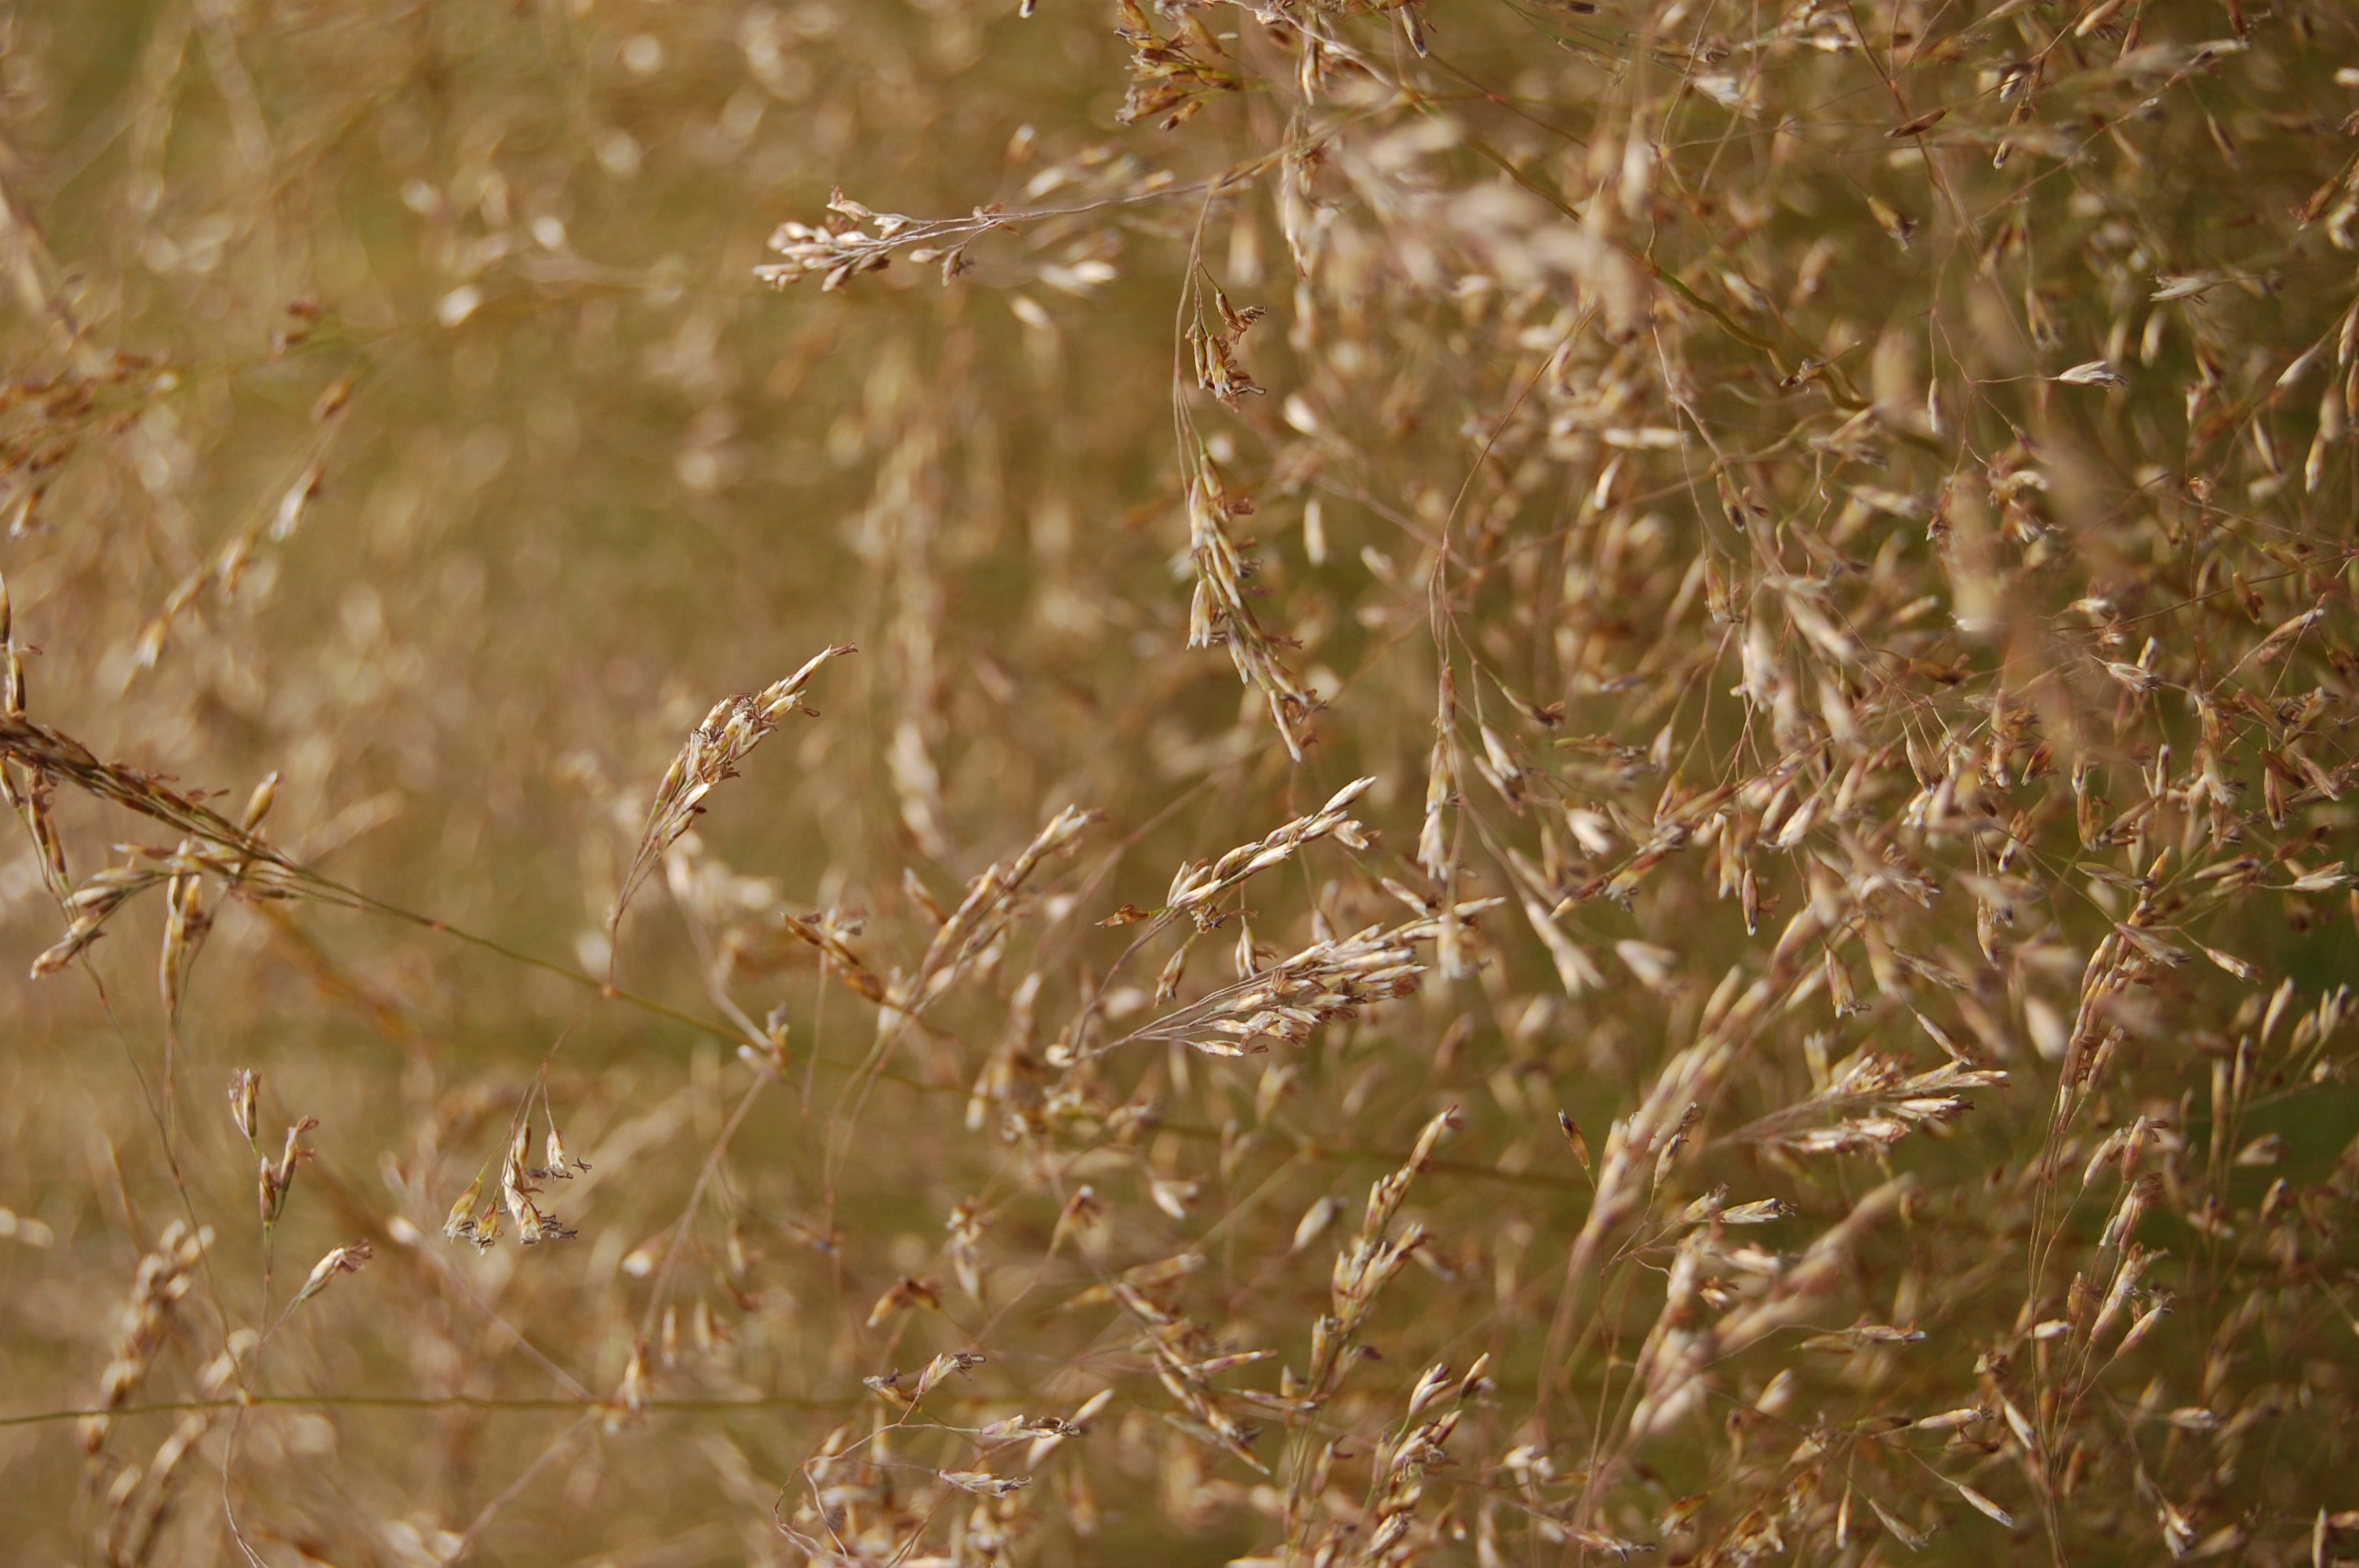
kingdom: Plantae
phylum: Tracheophyta
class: Liliopsida
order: Poales
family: Poaceae
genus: Deschampsia
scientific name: Deschampsia cespitosa
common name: Tufted hair-grass
